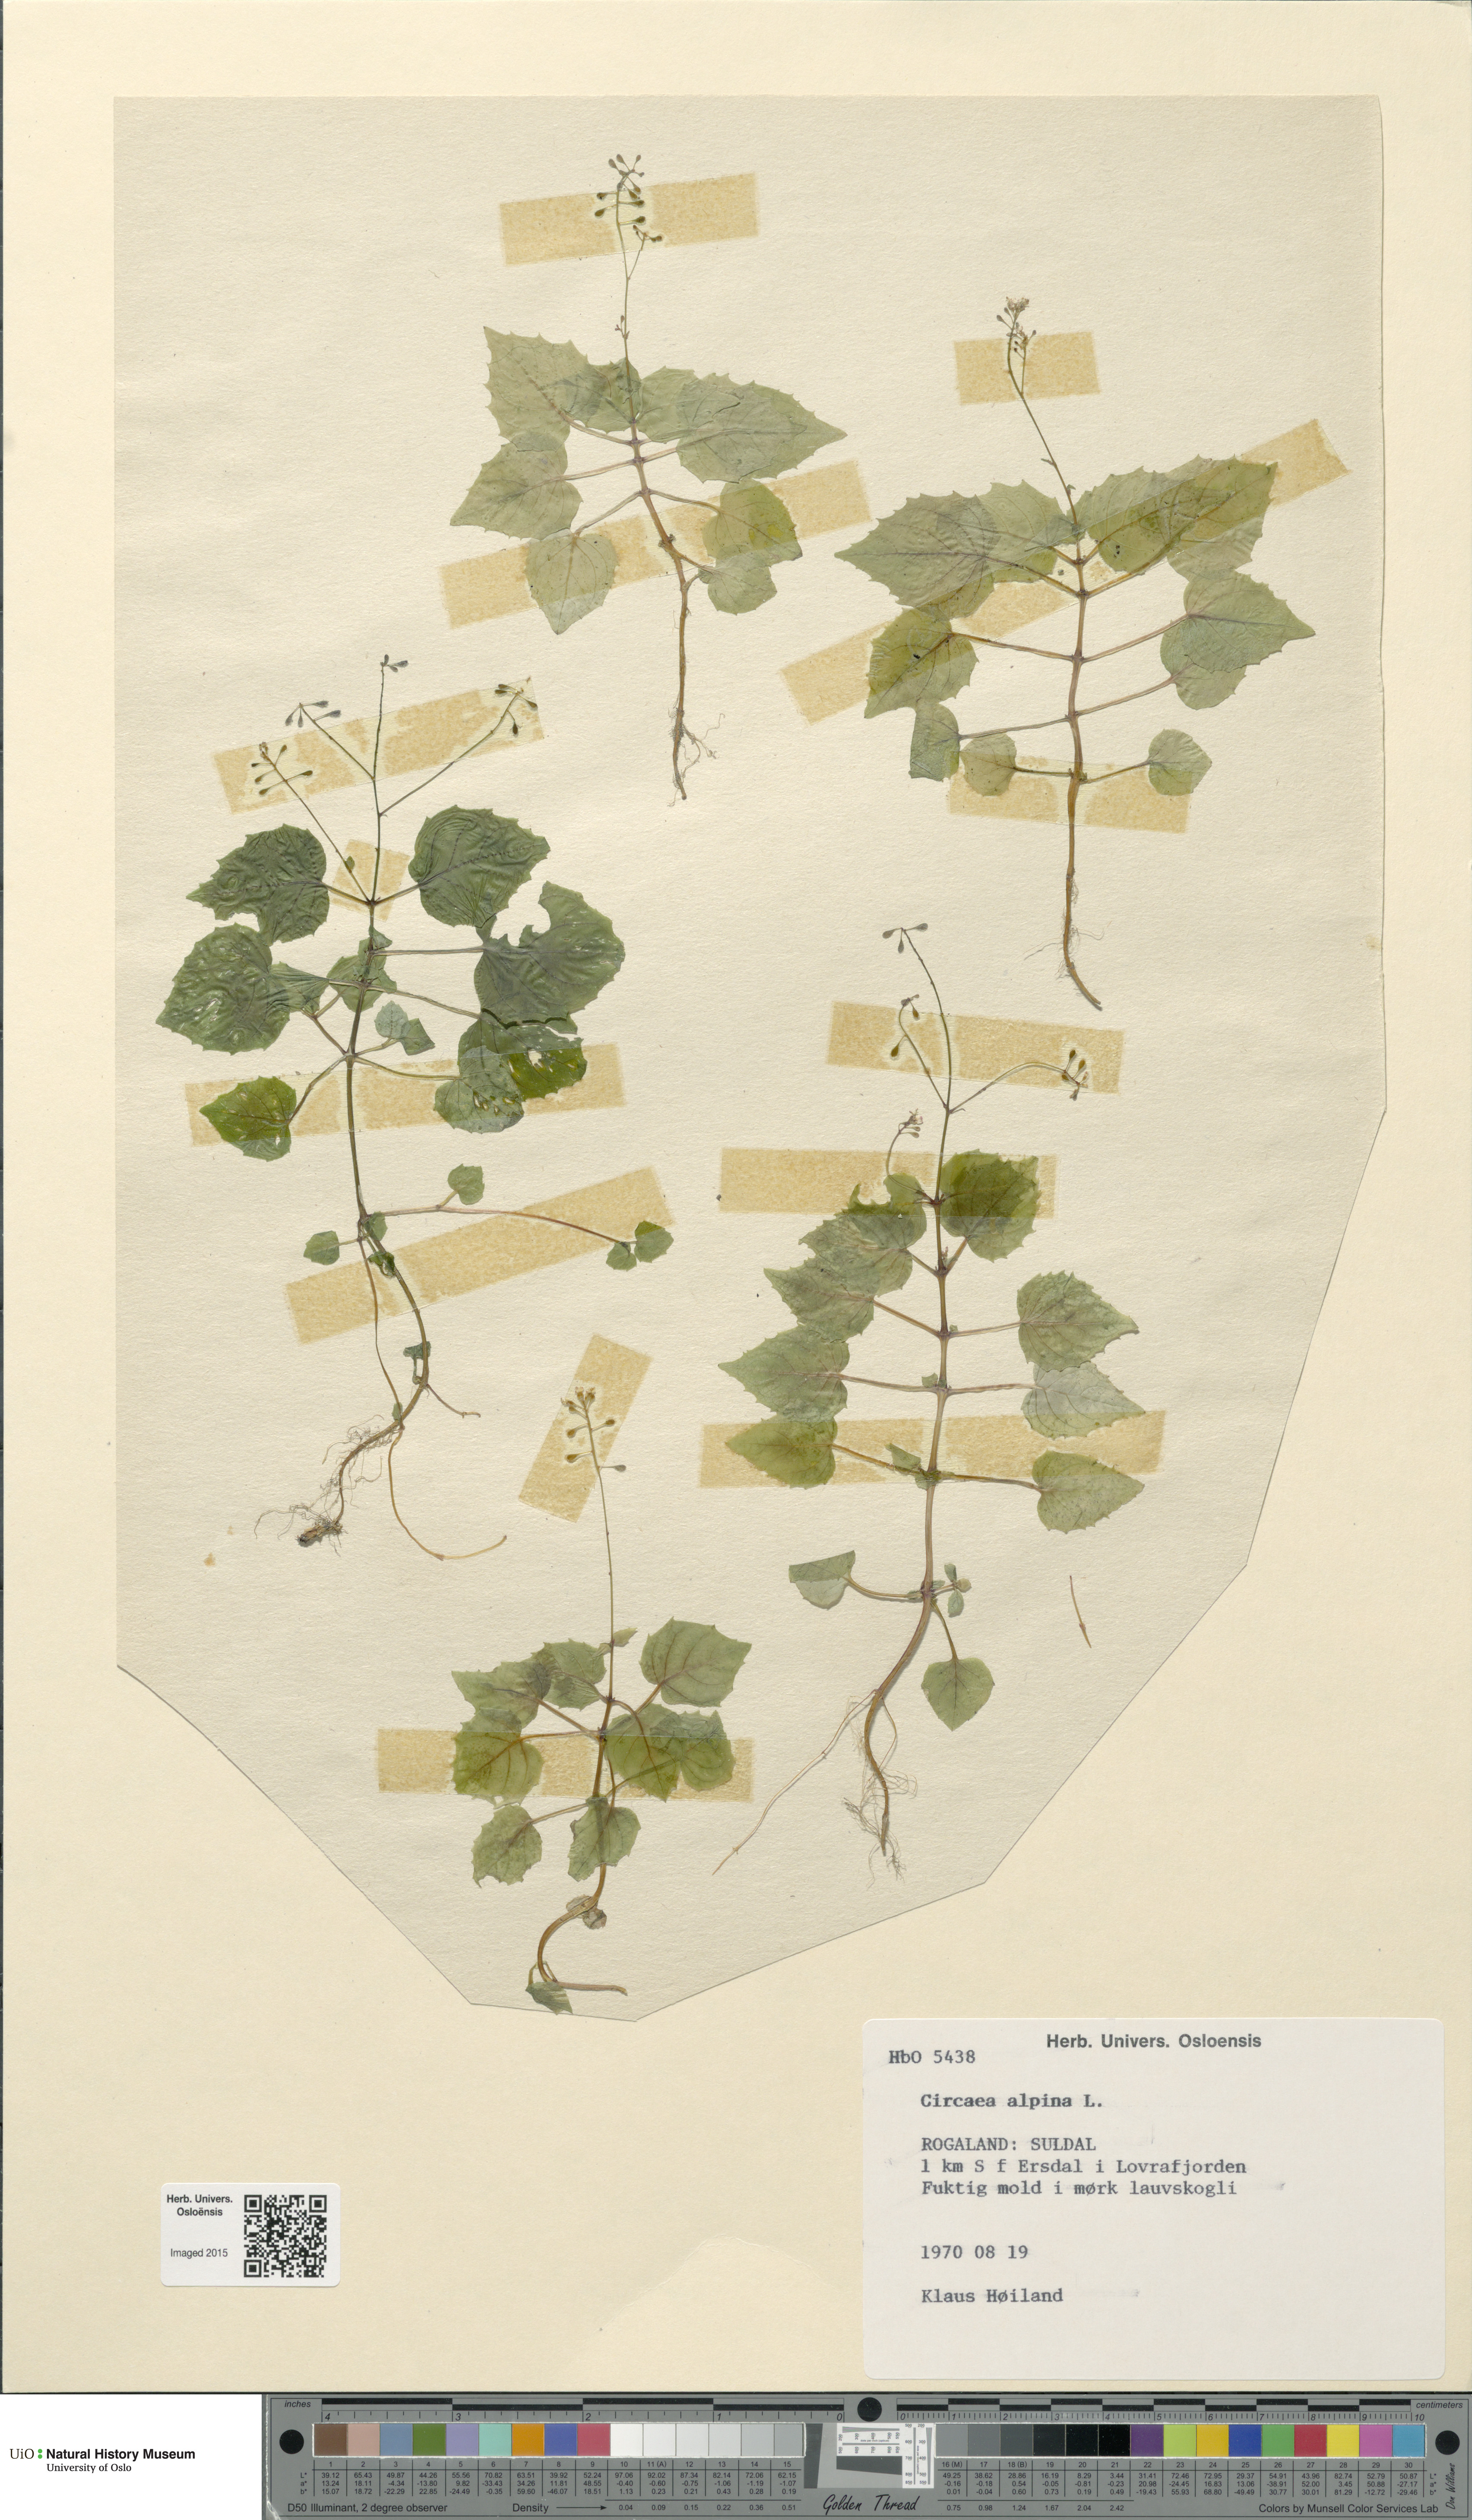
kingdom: Plantae
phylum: Tracheophyta
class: Magnoliopsida
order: Myrtales
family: Onagraceae
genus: Circaea
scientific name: Circaea alpina
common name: Alpine enchanter's-nightshade
